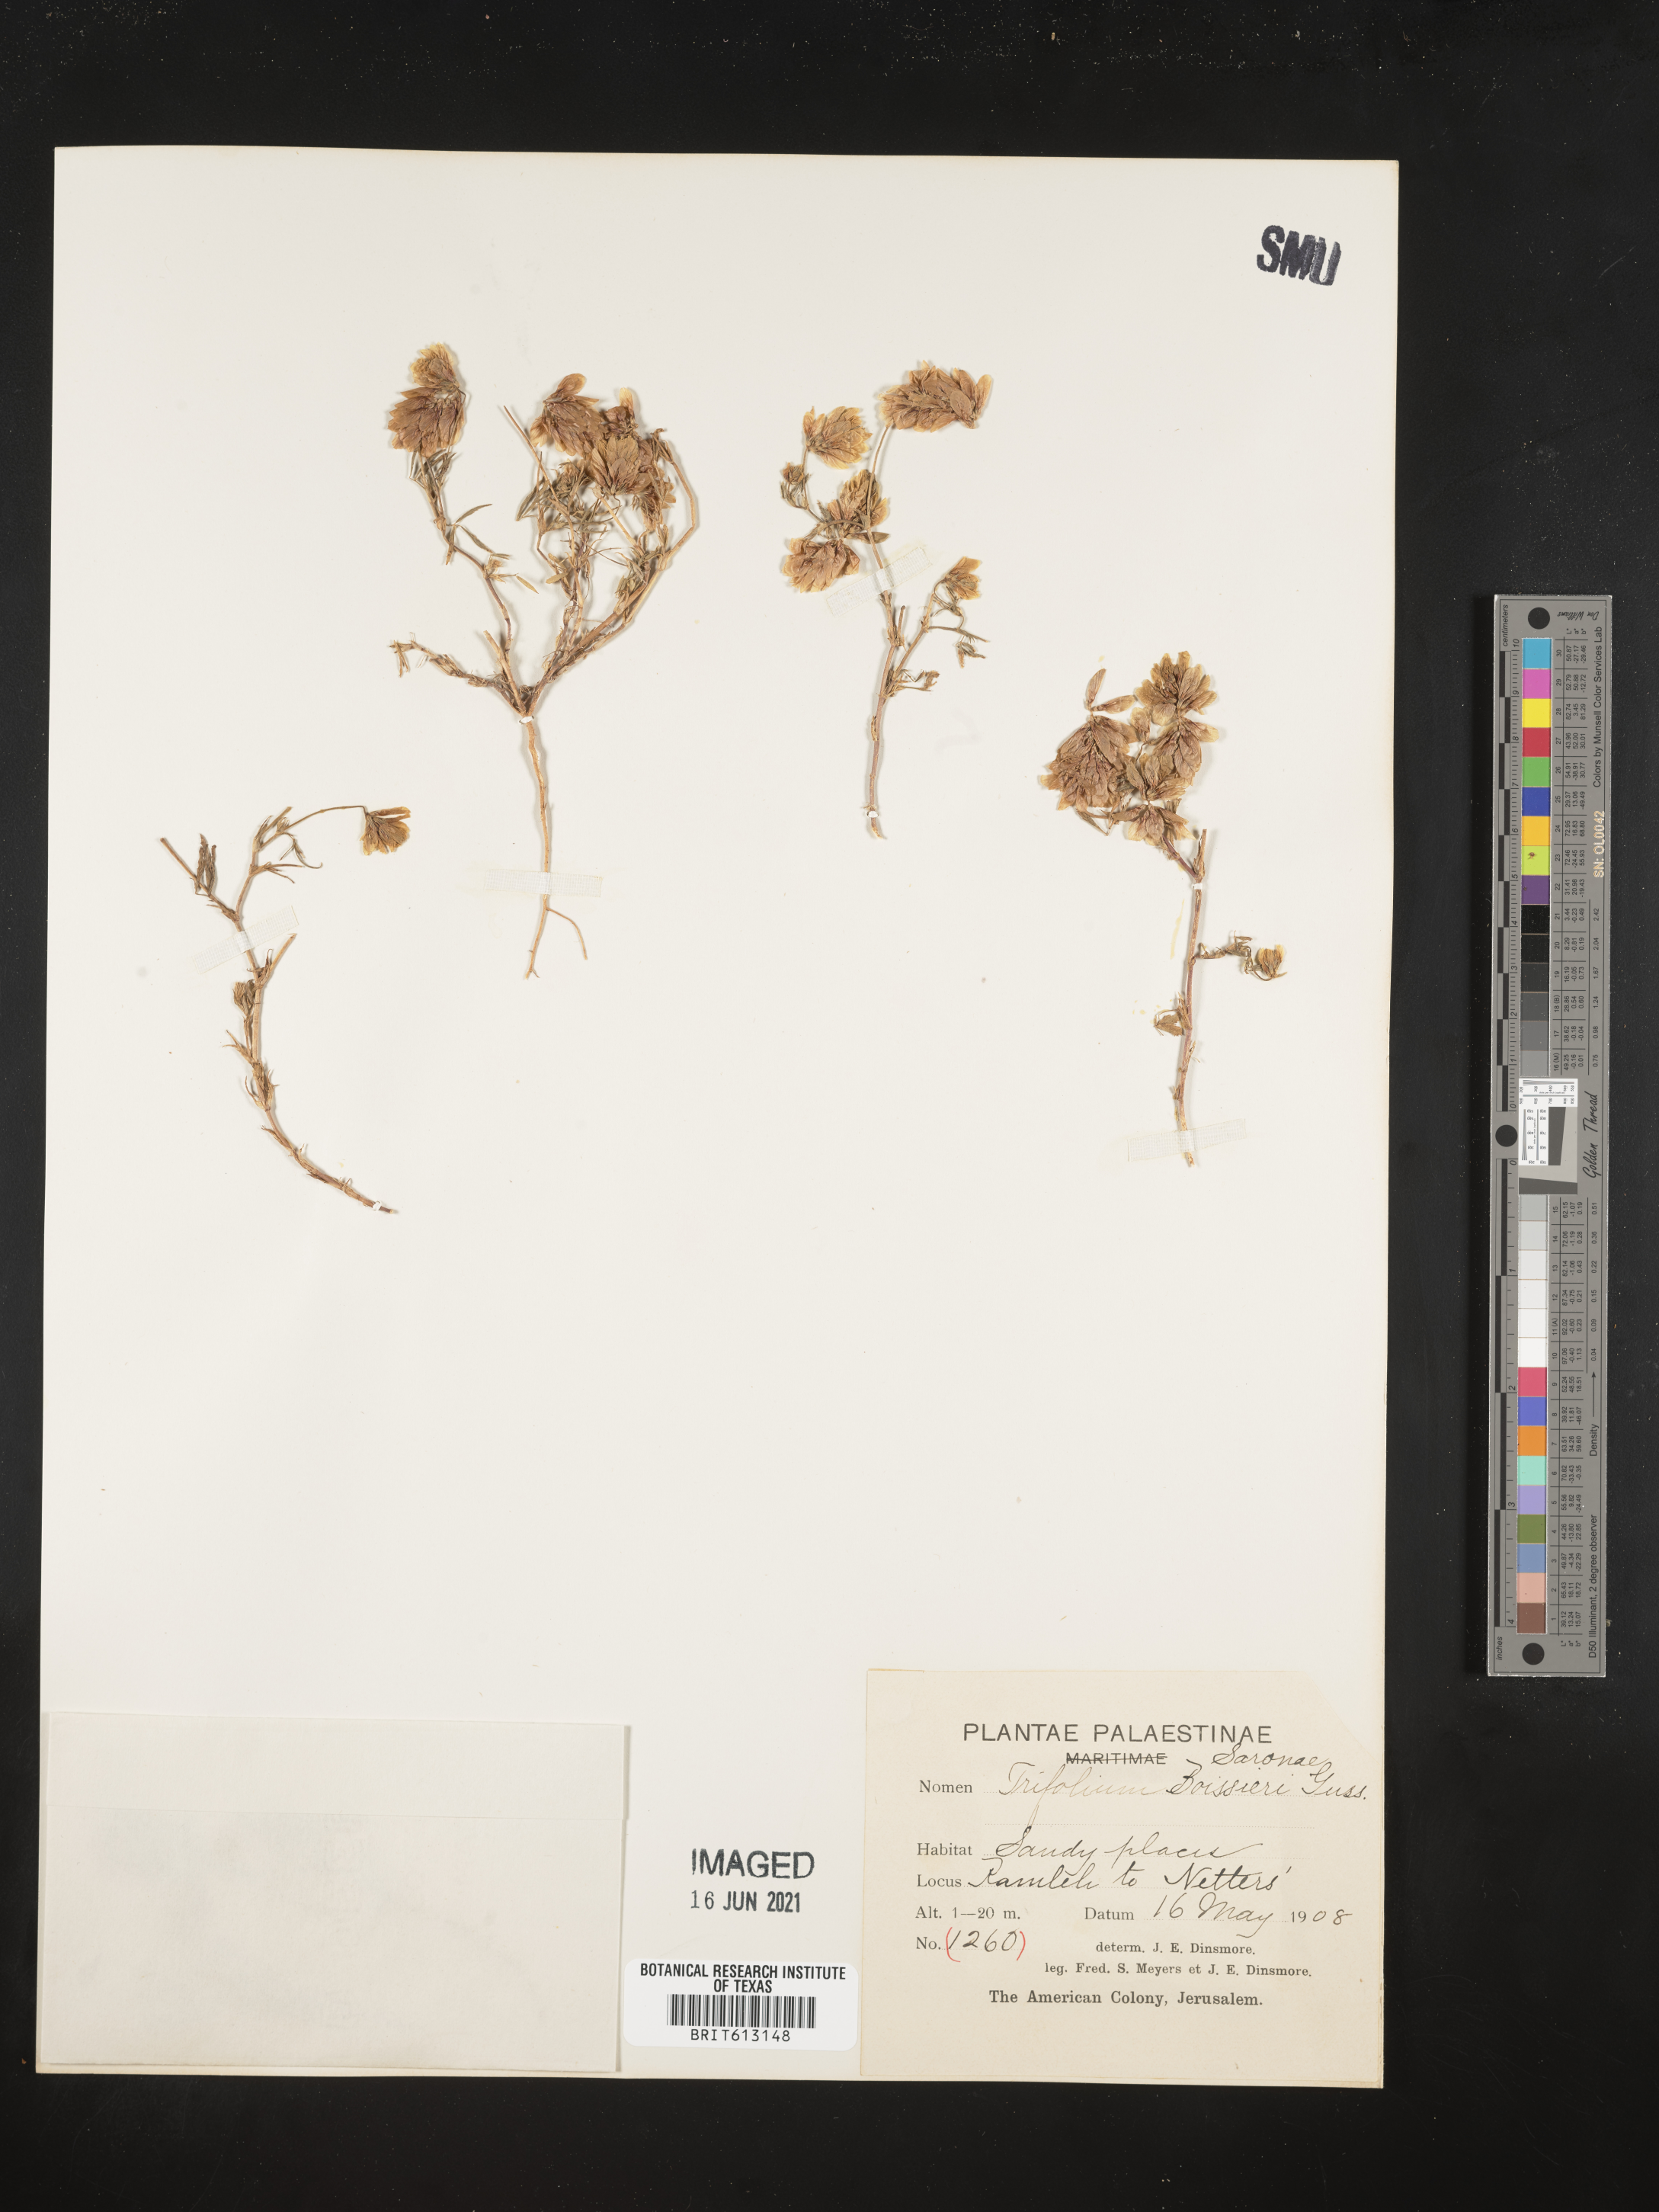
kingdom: Plantae
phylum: Tracheophyta
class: Magnoliopsida
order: Fabales
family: Fabaceae
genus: Trifolium
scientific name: Trifolium boissieri
